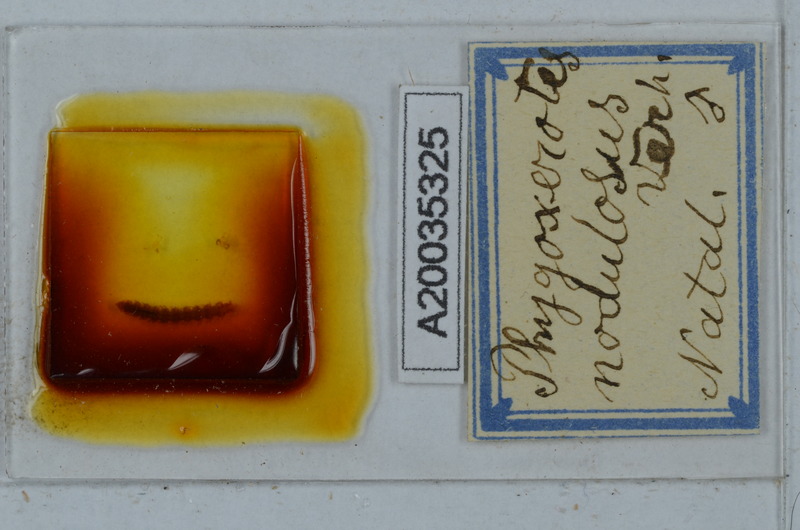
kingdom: Animalia
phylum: Arthropoda
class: Diplopoda
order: Polydesmida
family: Vaalogonopodidae
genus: Phygoxerotes
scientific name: Phygoxerotes nodulosus
